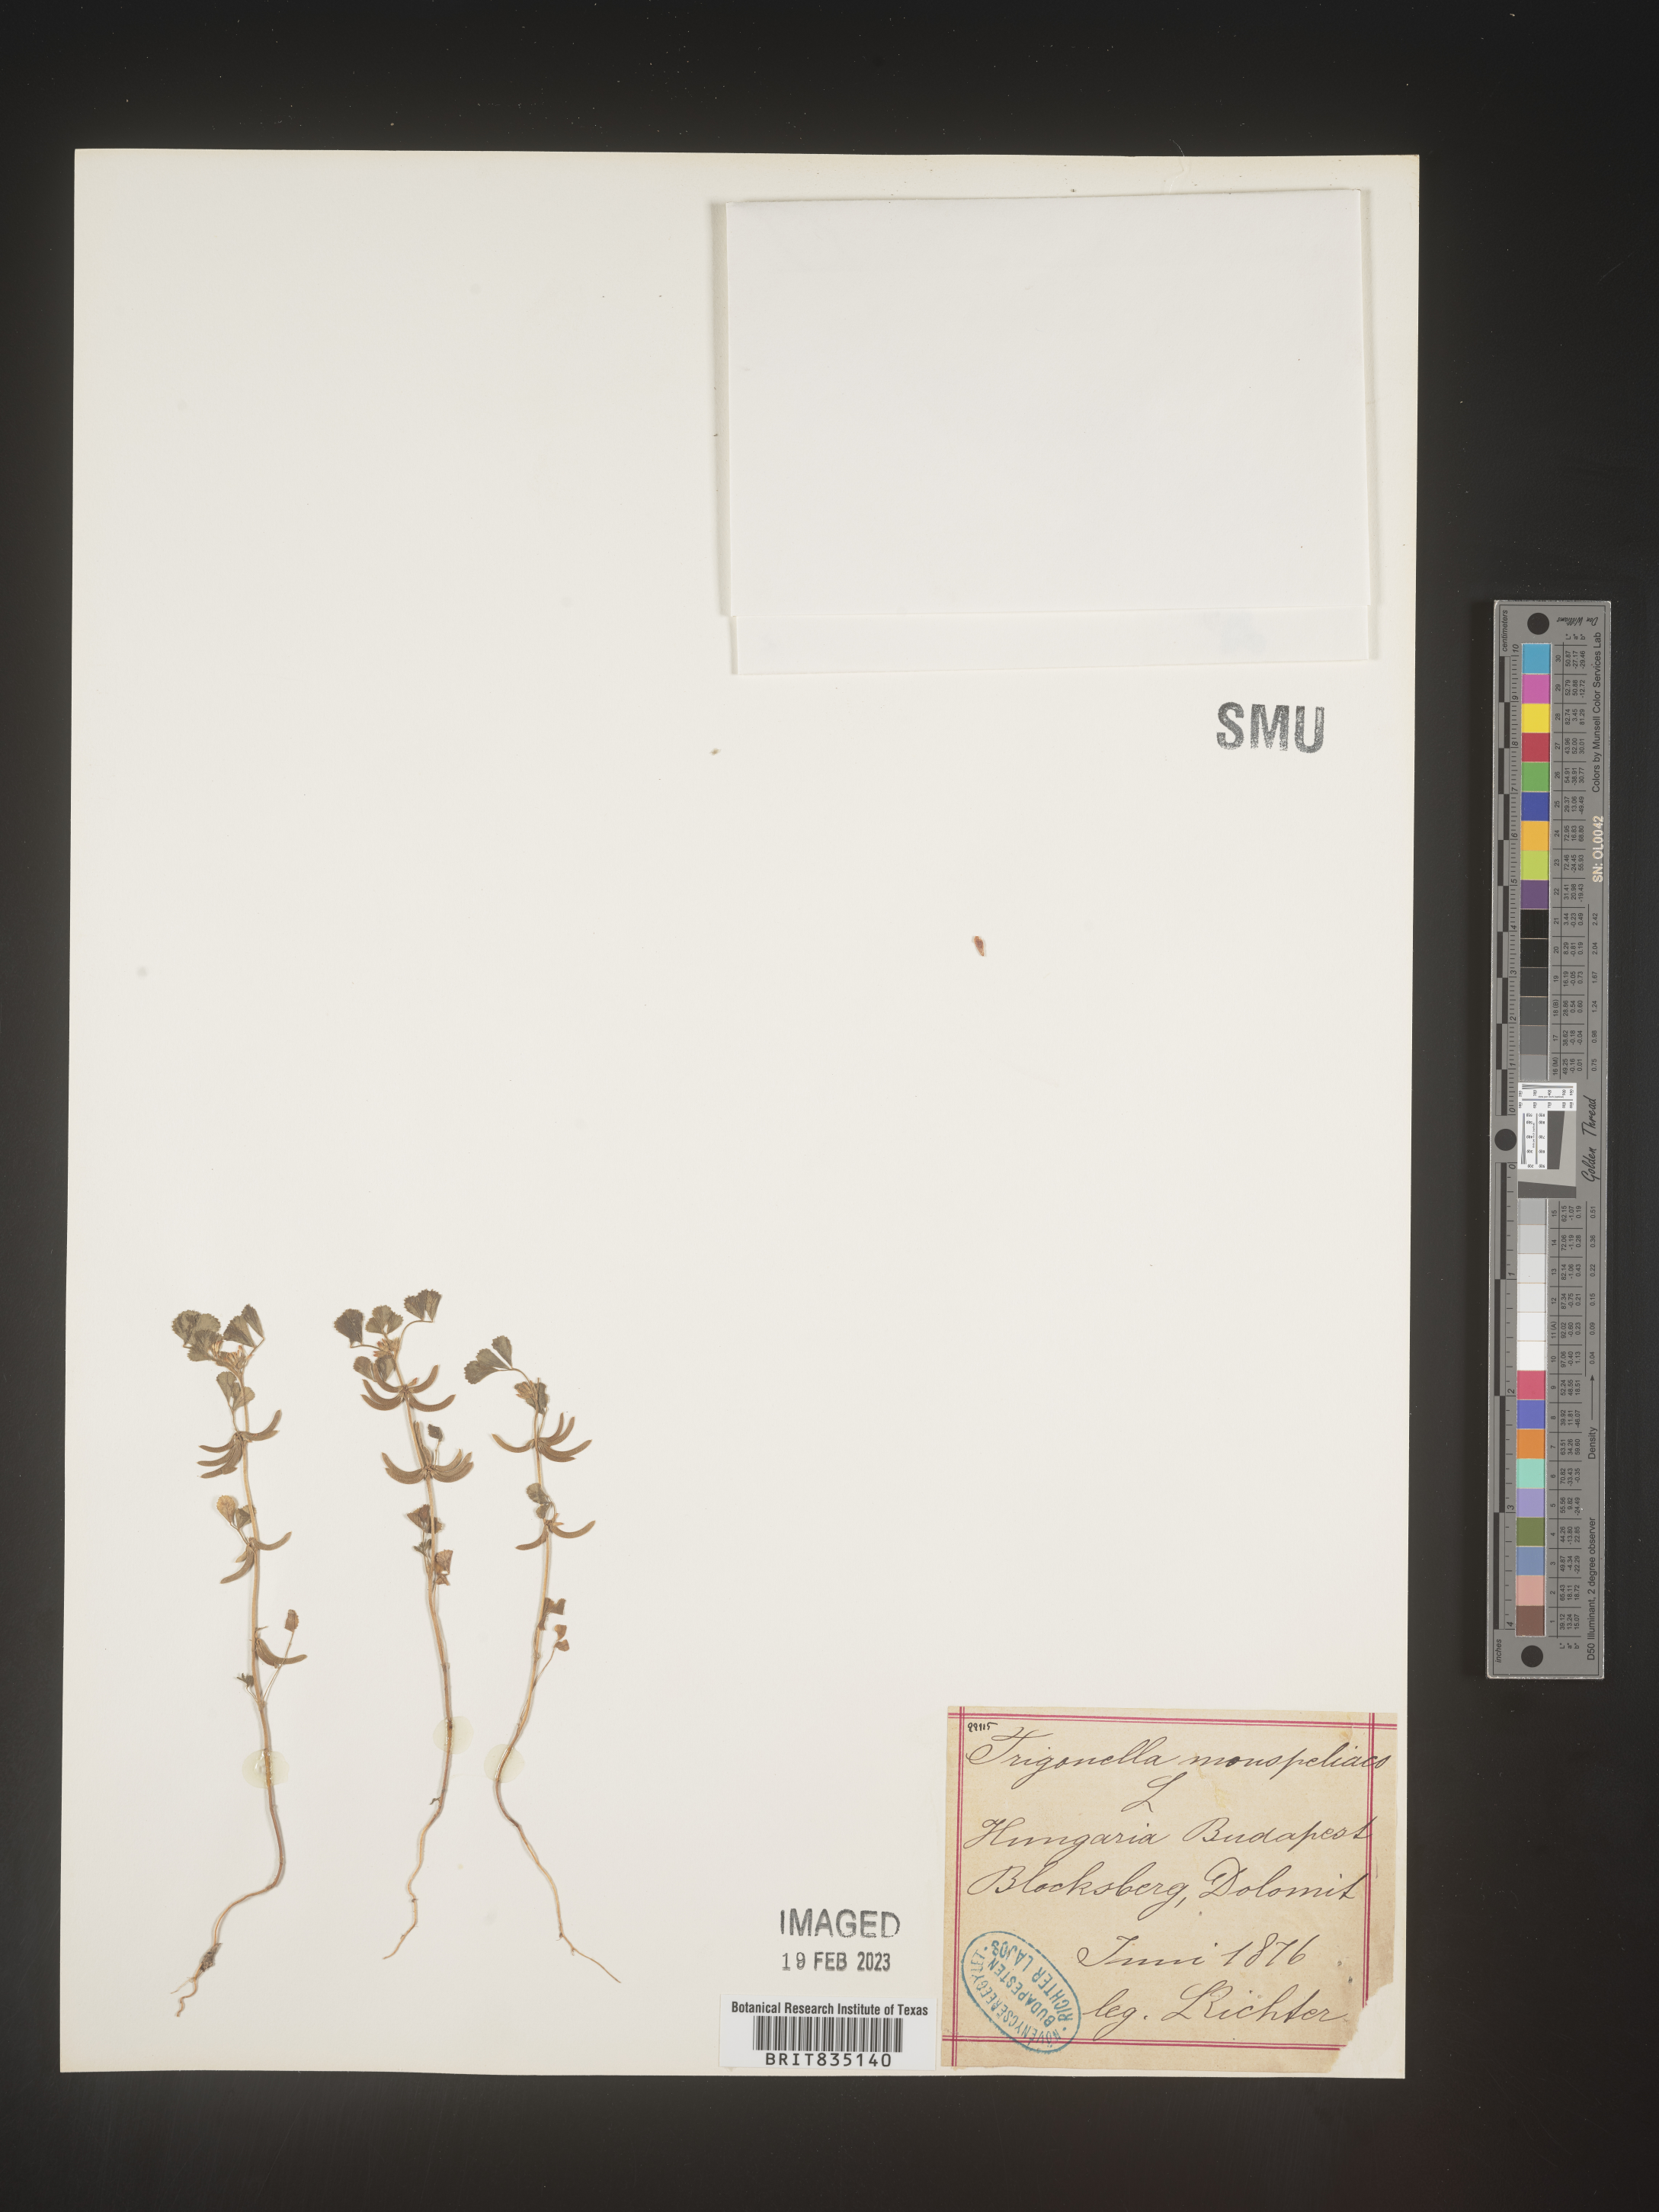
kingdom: Plantae
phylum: Tracheophyta
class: Magnoliopsida
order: Fabales
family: Fabaceae
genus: Trigonella
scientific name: Trigonella
